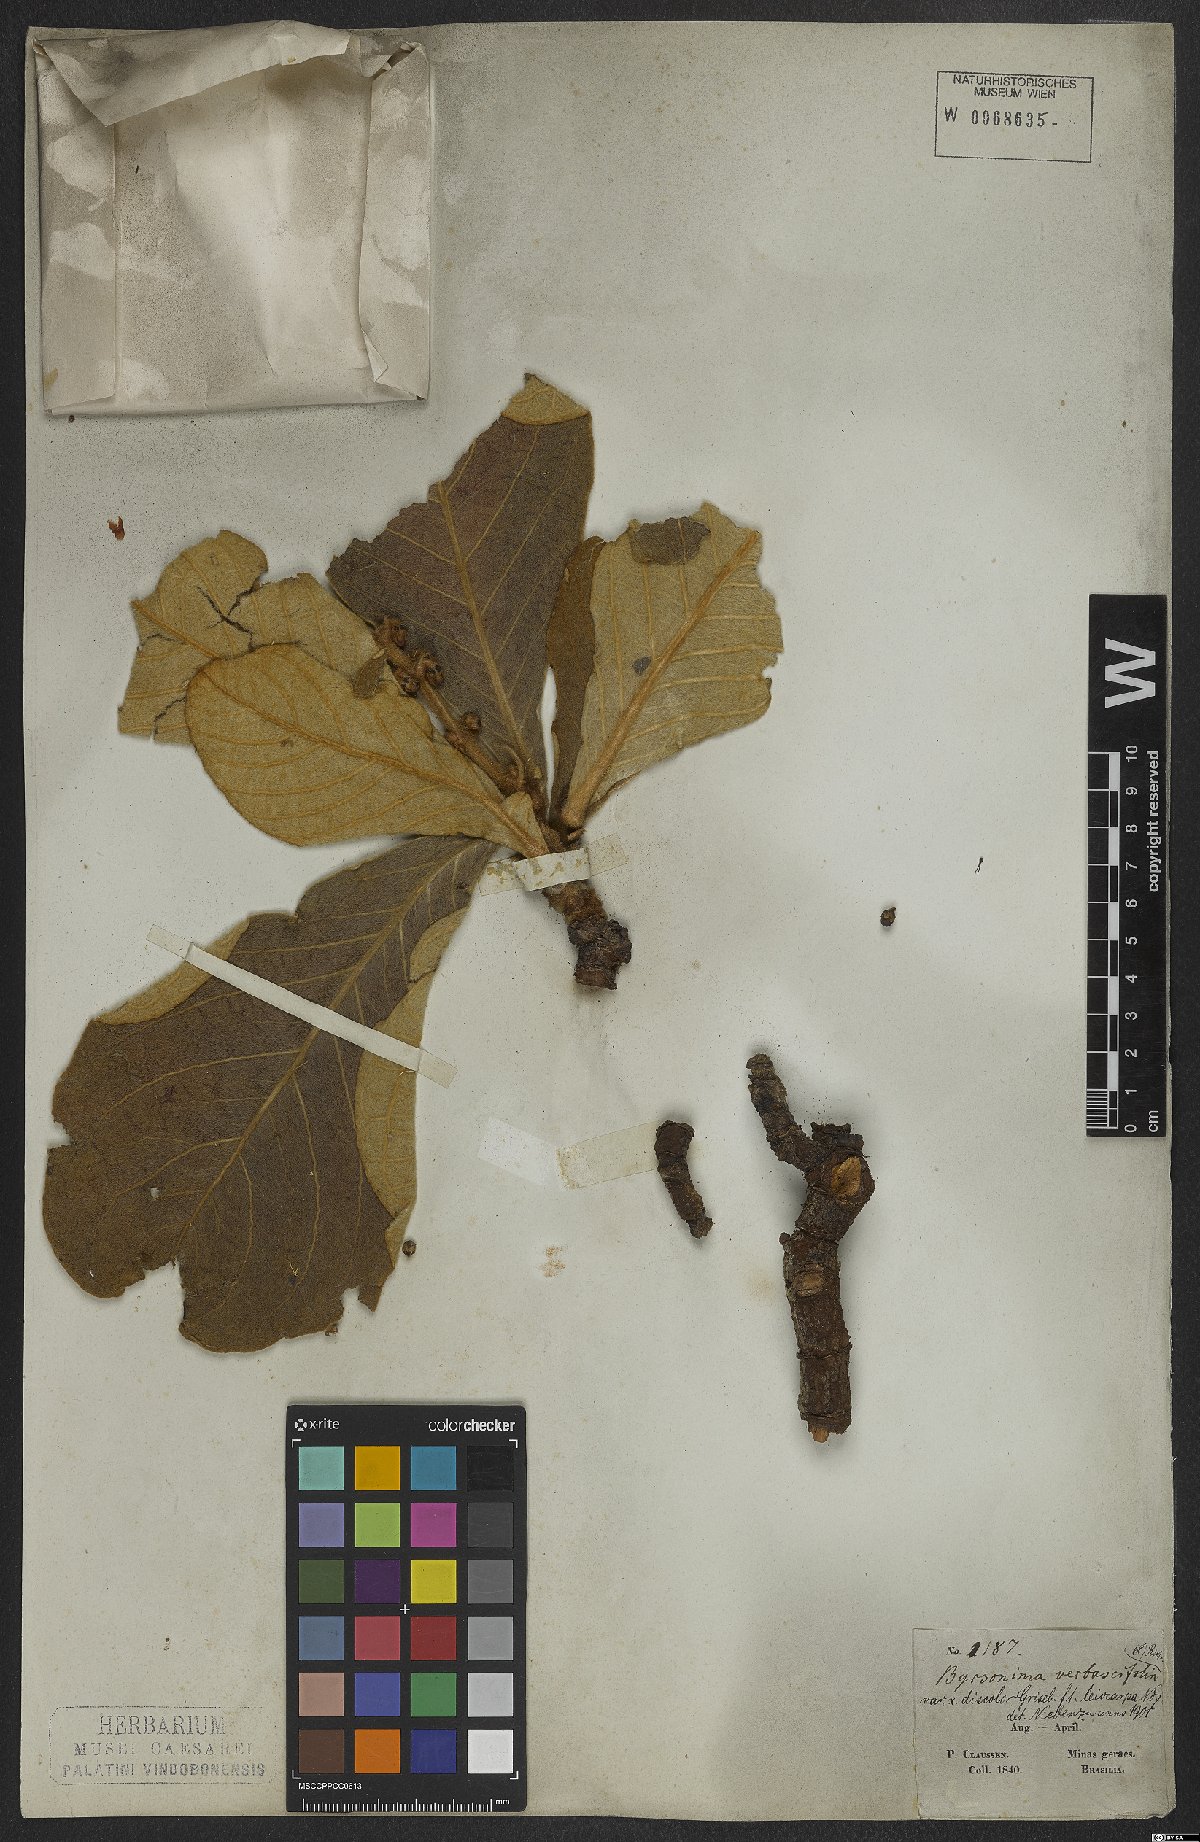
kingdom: Plantae
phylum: Tracheophyta
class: Magnoliopsida
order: Malpighiales
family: Malpighiaceae
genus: Byrsonima
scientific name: Byrsonima verbascifolia
